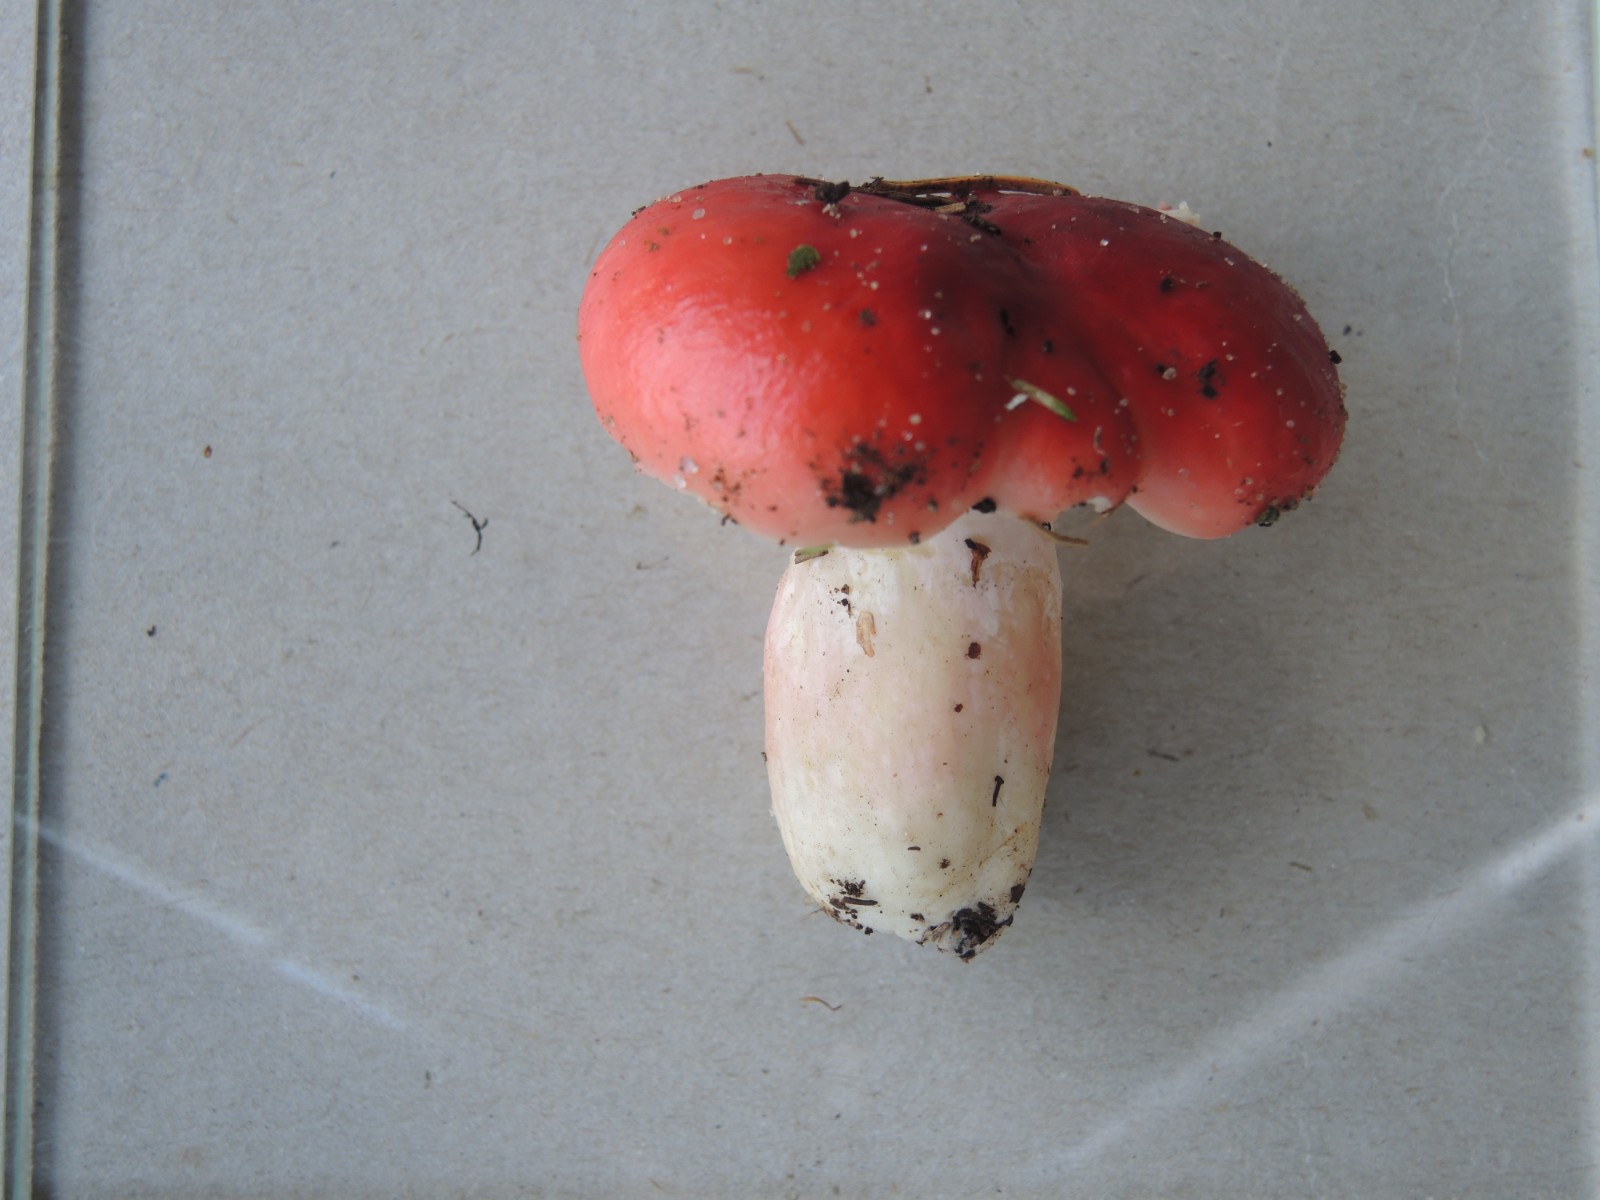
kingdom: Fungi
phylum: Basidiomycota
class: Agaricomycetes
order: Russulales
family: Russulaceae
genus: Russula
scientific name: Russula rhodopus
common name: lak-skørhat
